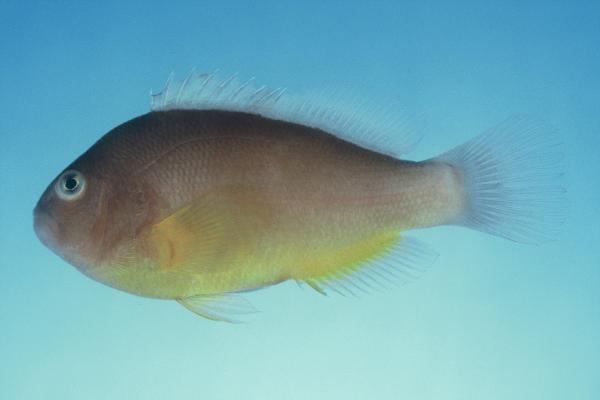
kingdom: Animalia
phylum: Chordata
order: Perciformes
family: Pomacentridae
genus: Amphiprion
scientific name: Amphiprion akallopisos
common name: Skunk clownfish
